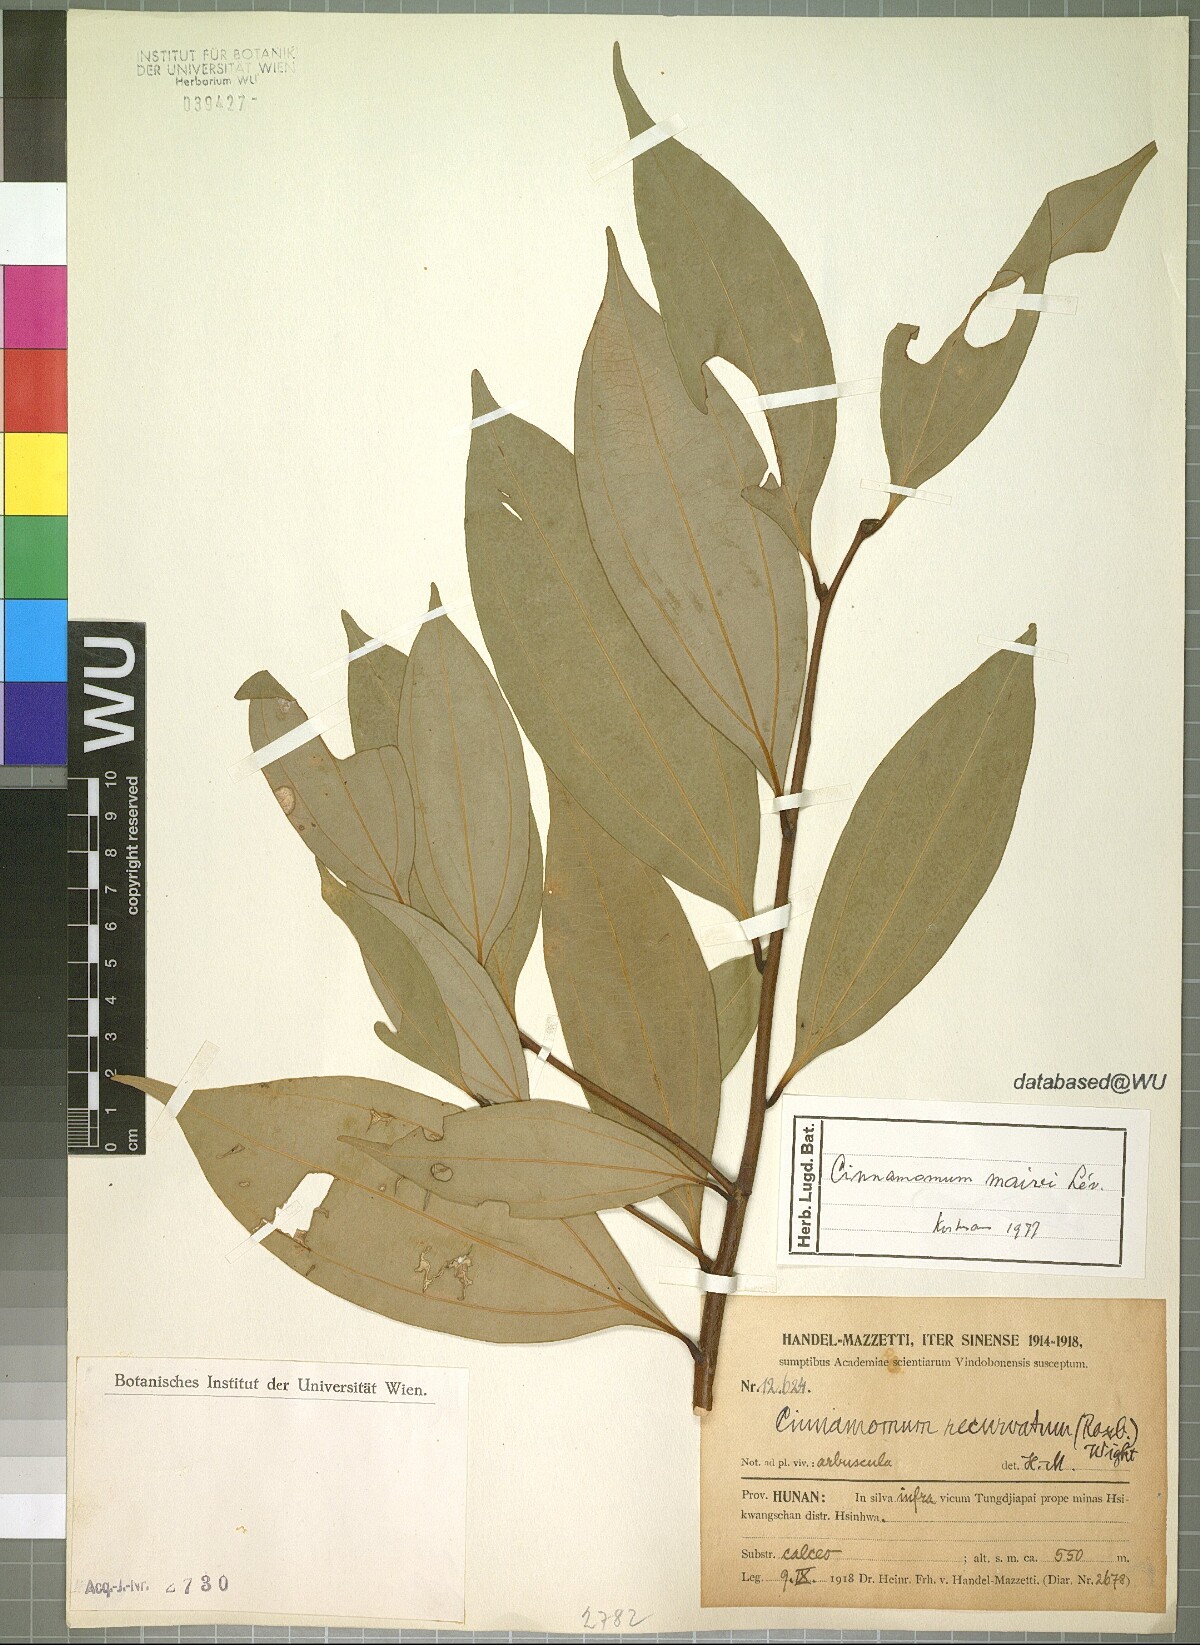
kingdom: Plantae
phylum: Tracheophyta
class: Magnoliopsida
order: Laurales
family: Lauraceae
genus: Cinnamomum
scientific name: Cinnamomum mairei
